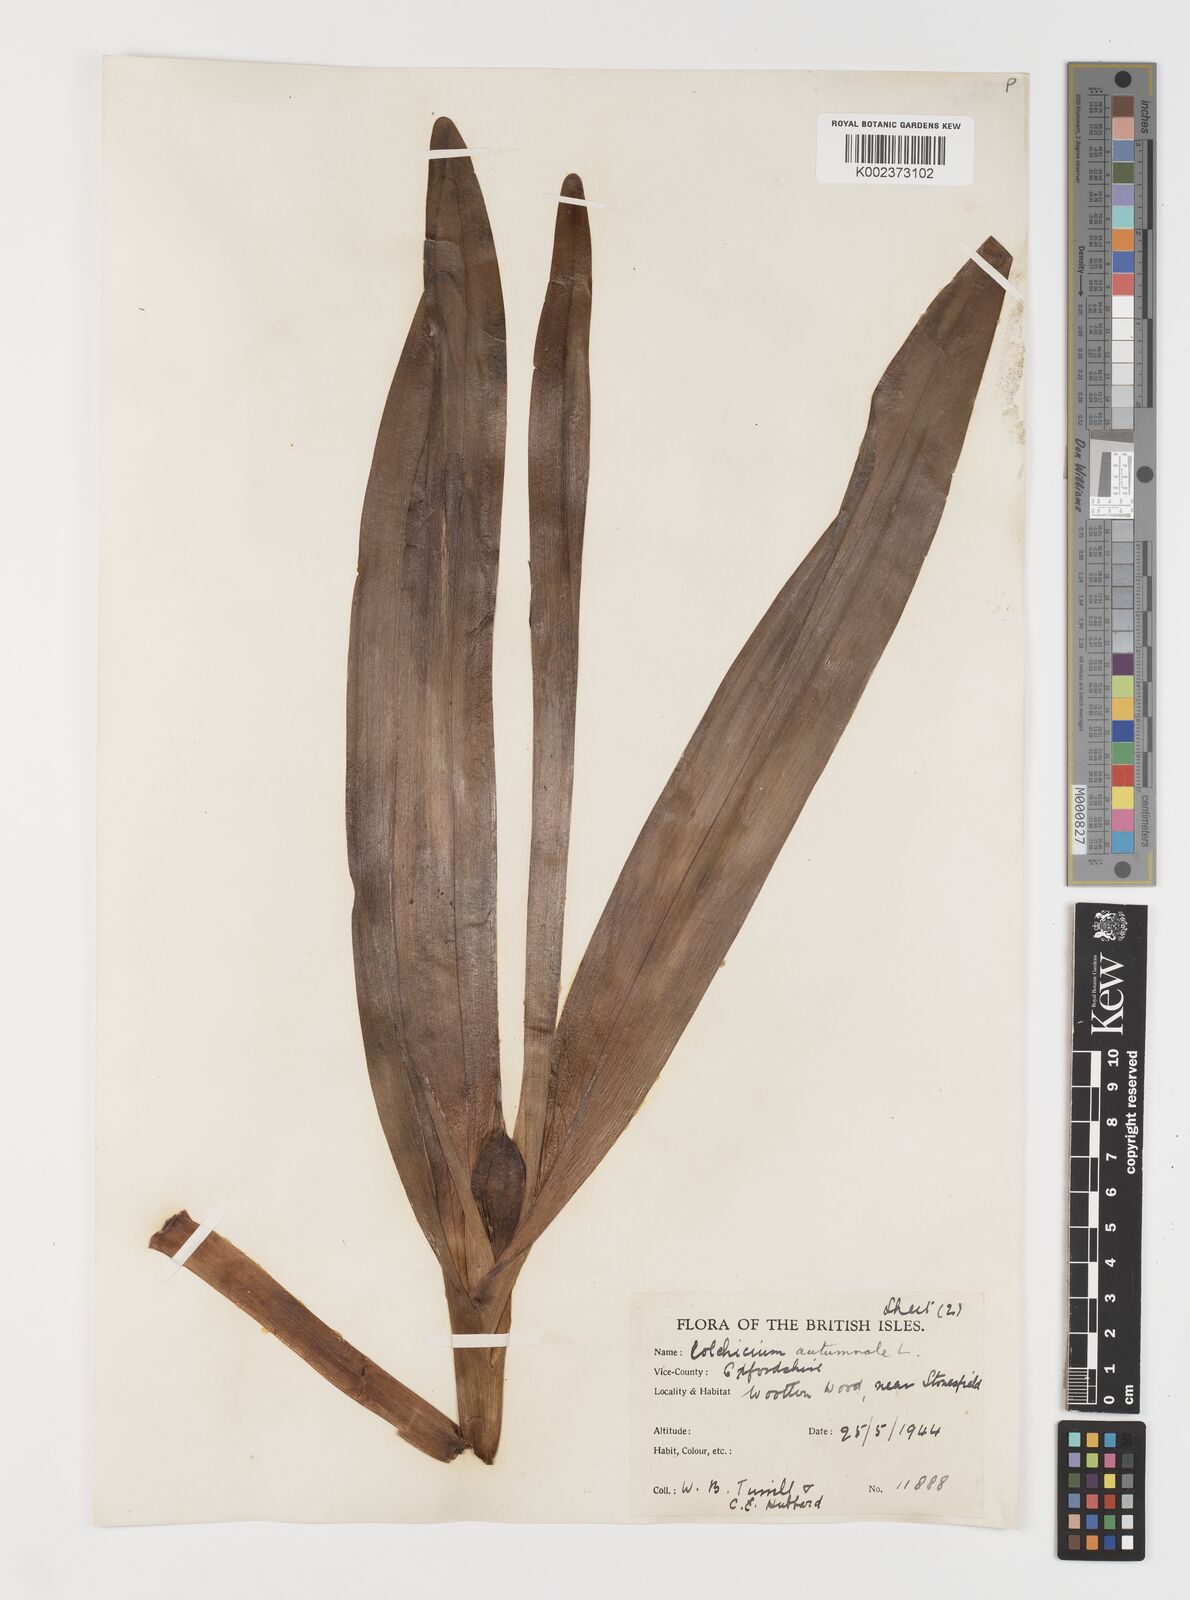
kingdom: Plantae
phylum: Tracheophyta
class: Liliopsida
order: Liliales
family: Colchicaceae
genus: Colchicum
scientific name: Colchicum autumnale
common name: Autumn crocus
